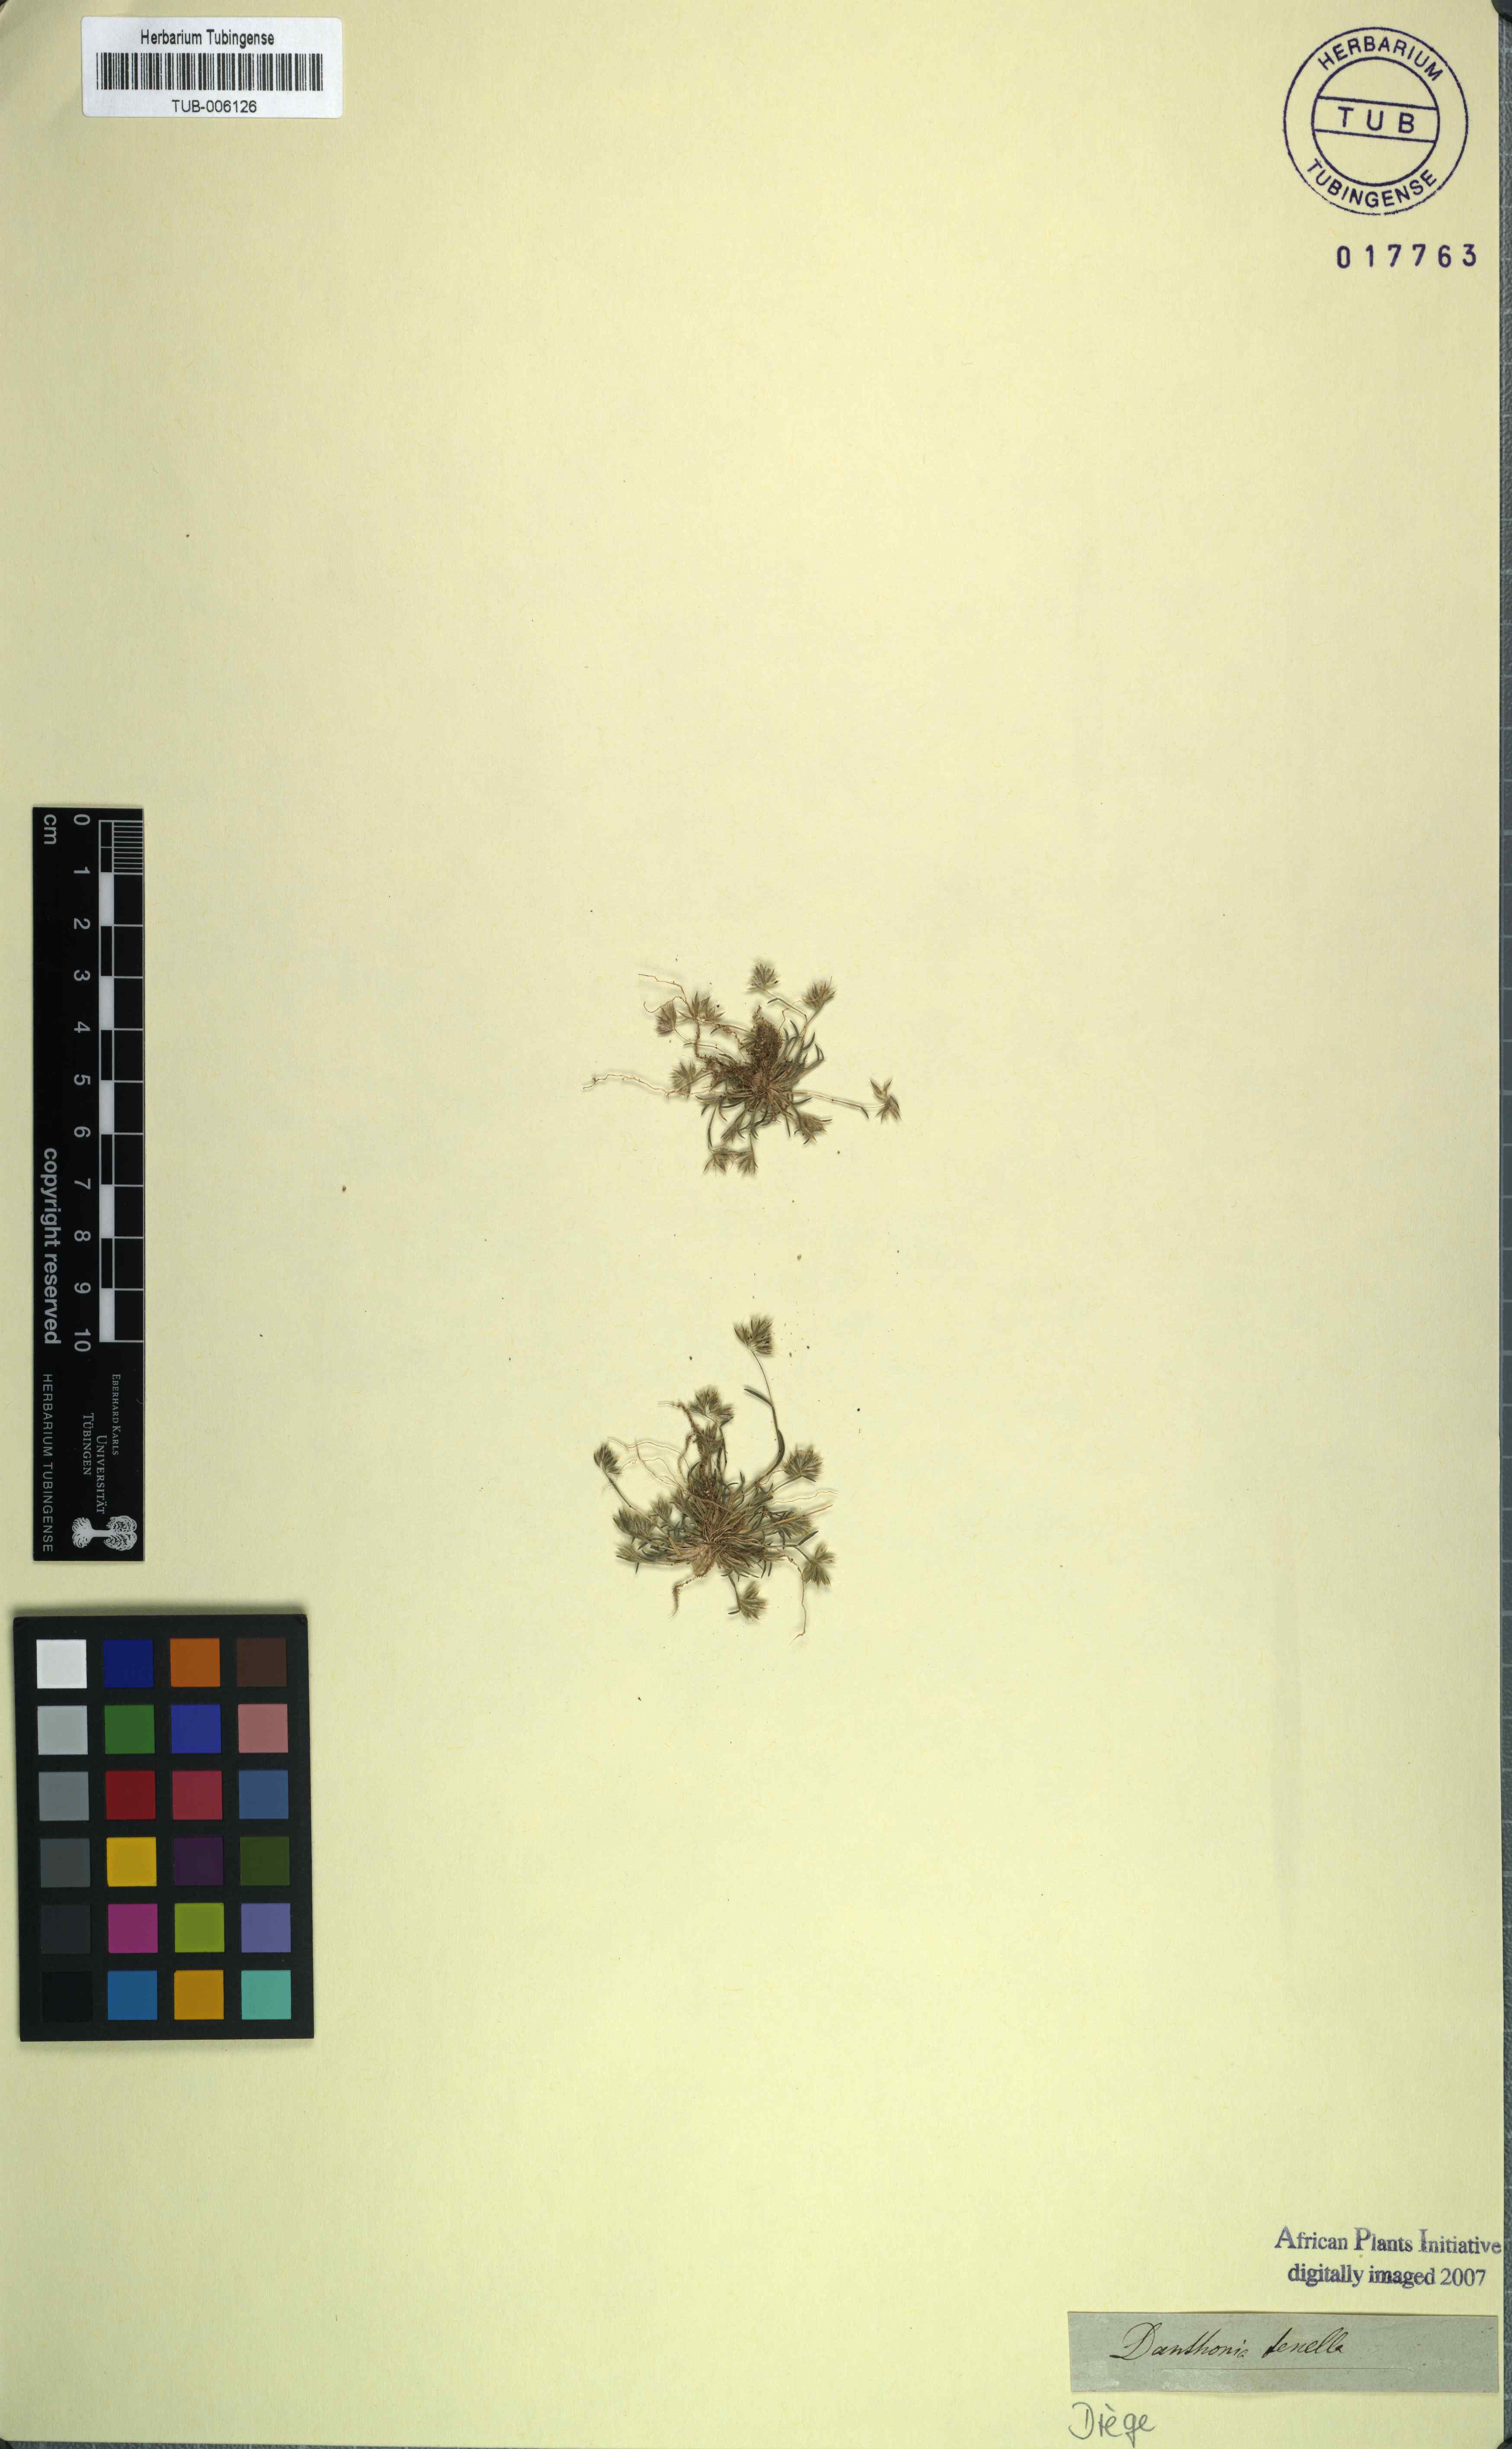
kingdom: Plantae
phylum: Tracheophyta
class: Liliopsida
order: Poales
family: Poaceae
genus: Tribolium
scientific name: Tribolium tenellum
